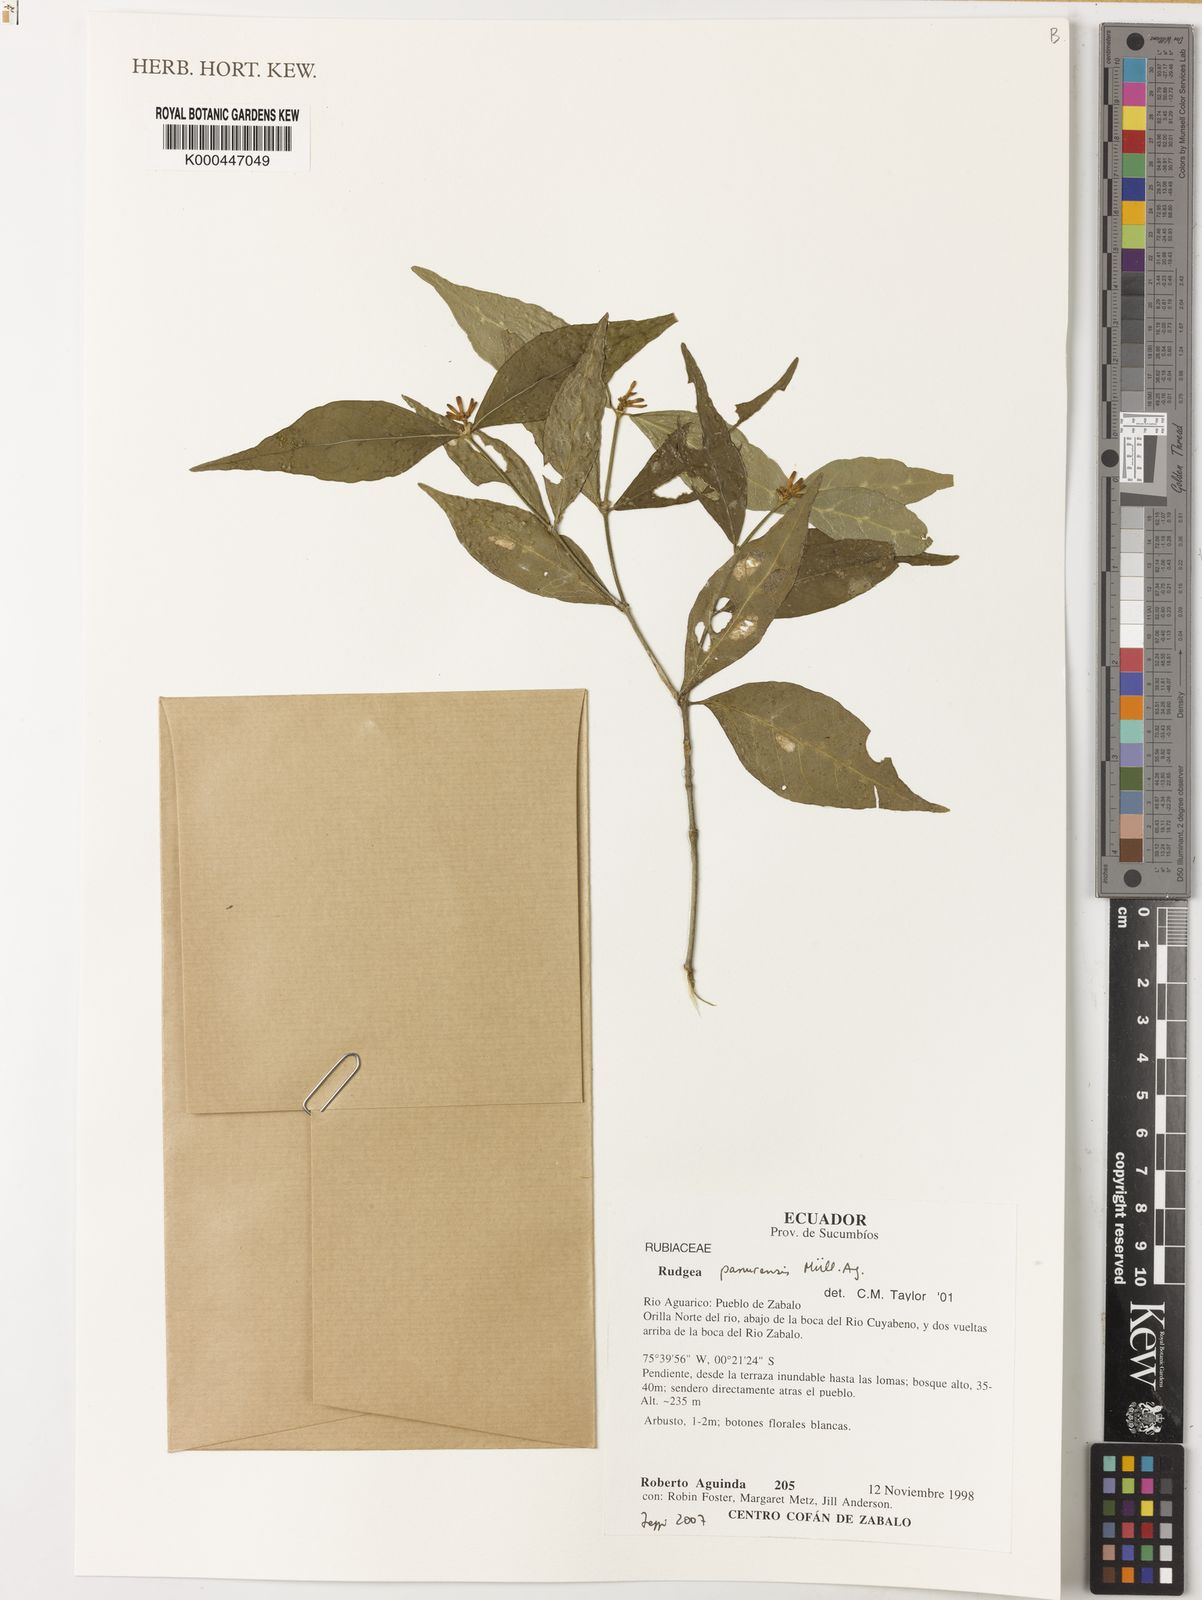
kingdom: Plantae
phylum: Tracheophyta
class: Magnoliopsida
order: Gentianales
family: Rubiaceae
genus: Rudgea
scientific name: Rudgea panurensis
